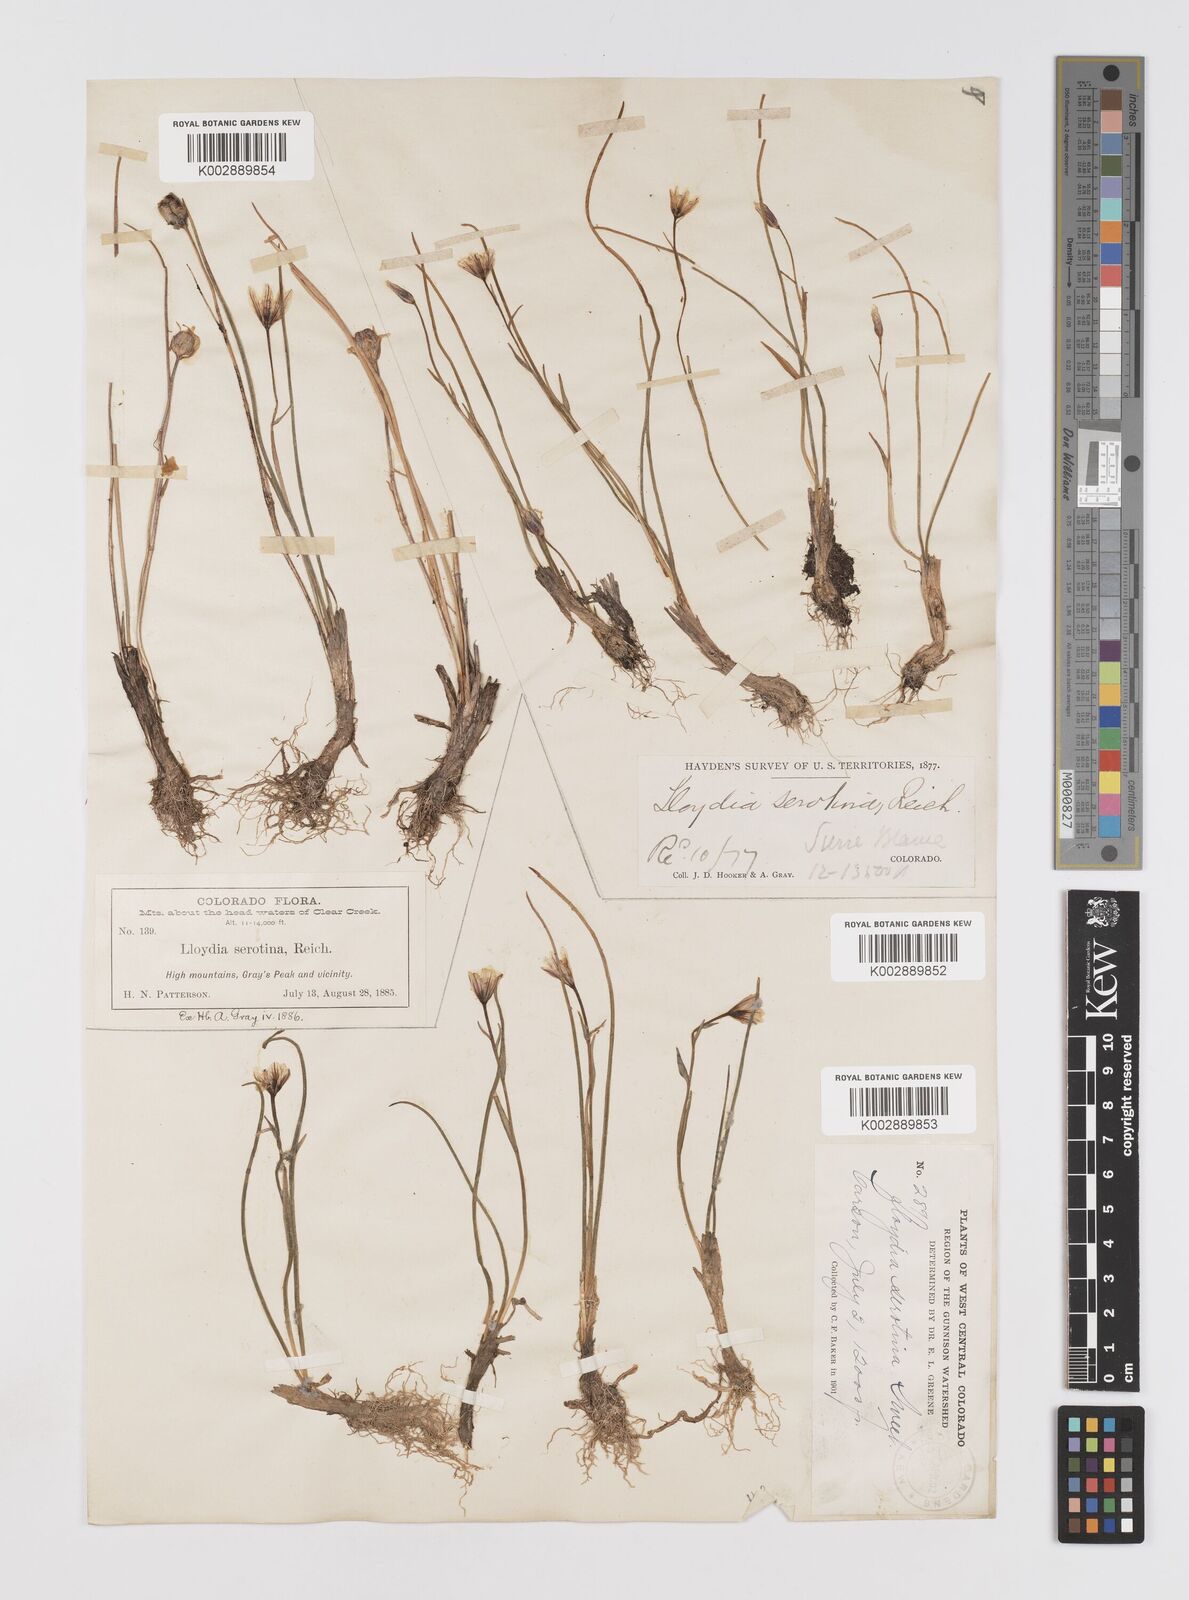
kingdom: Plantae
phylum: Tracheophyta
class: Liliopsida
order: Liliales
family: Liliaceae
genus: Gagea
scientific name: Gagea serotina
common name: Snowdon lily
